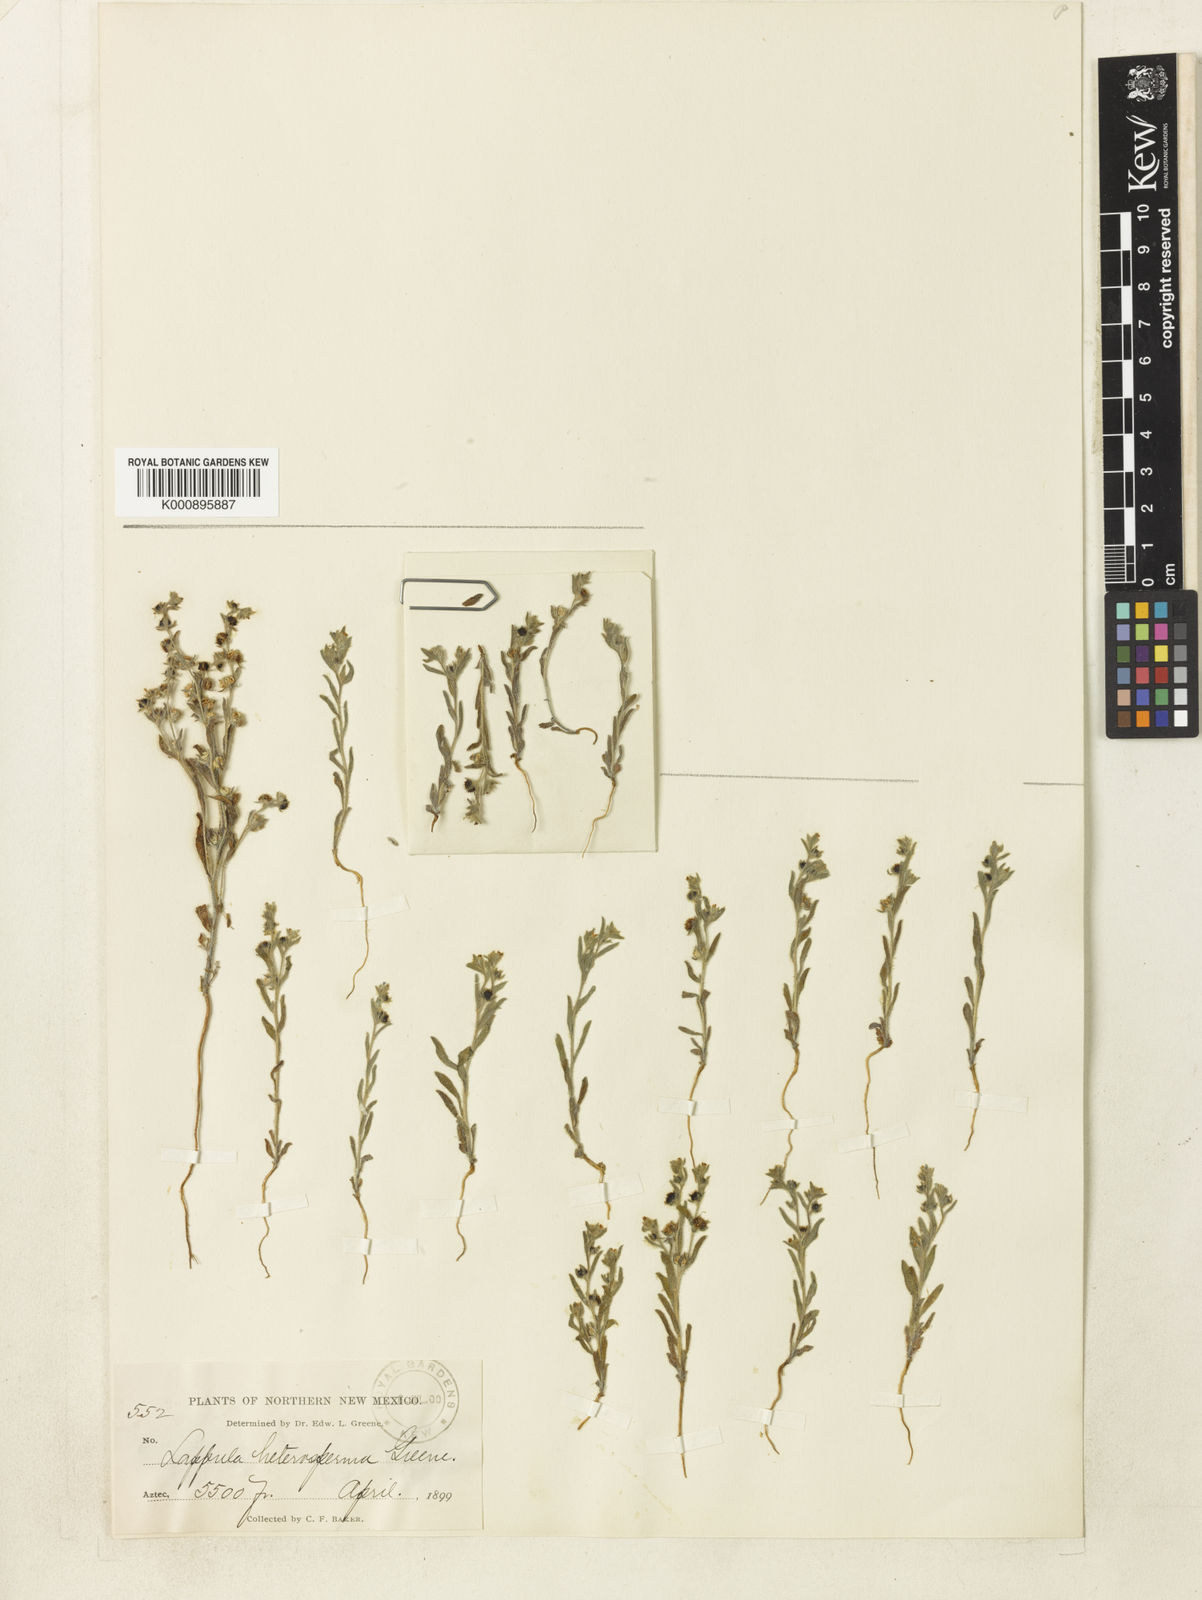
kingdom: Plantae
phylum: Tracheophyta
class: Magnoliopsida
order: Boraginales
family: Boraginaceae
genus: Lappula
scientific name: Lappula occidentalis
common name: Western stickseed
